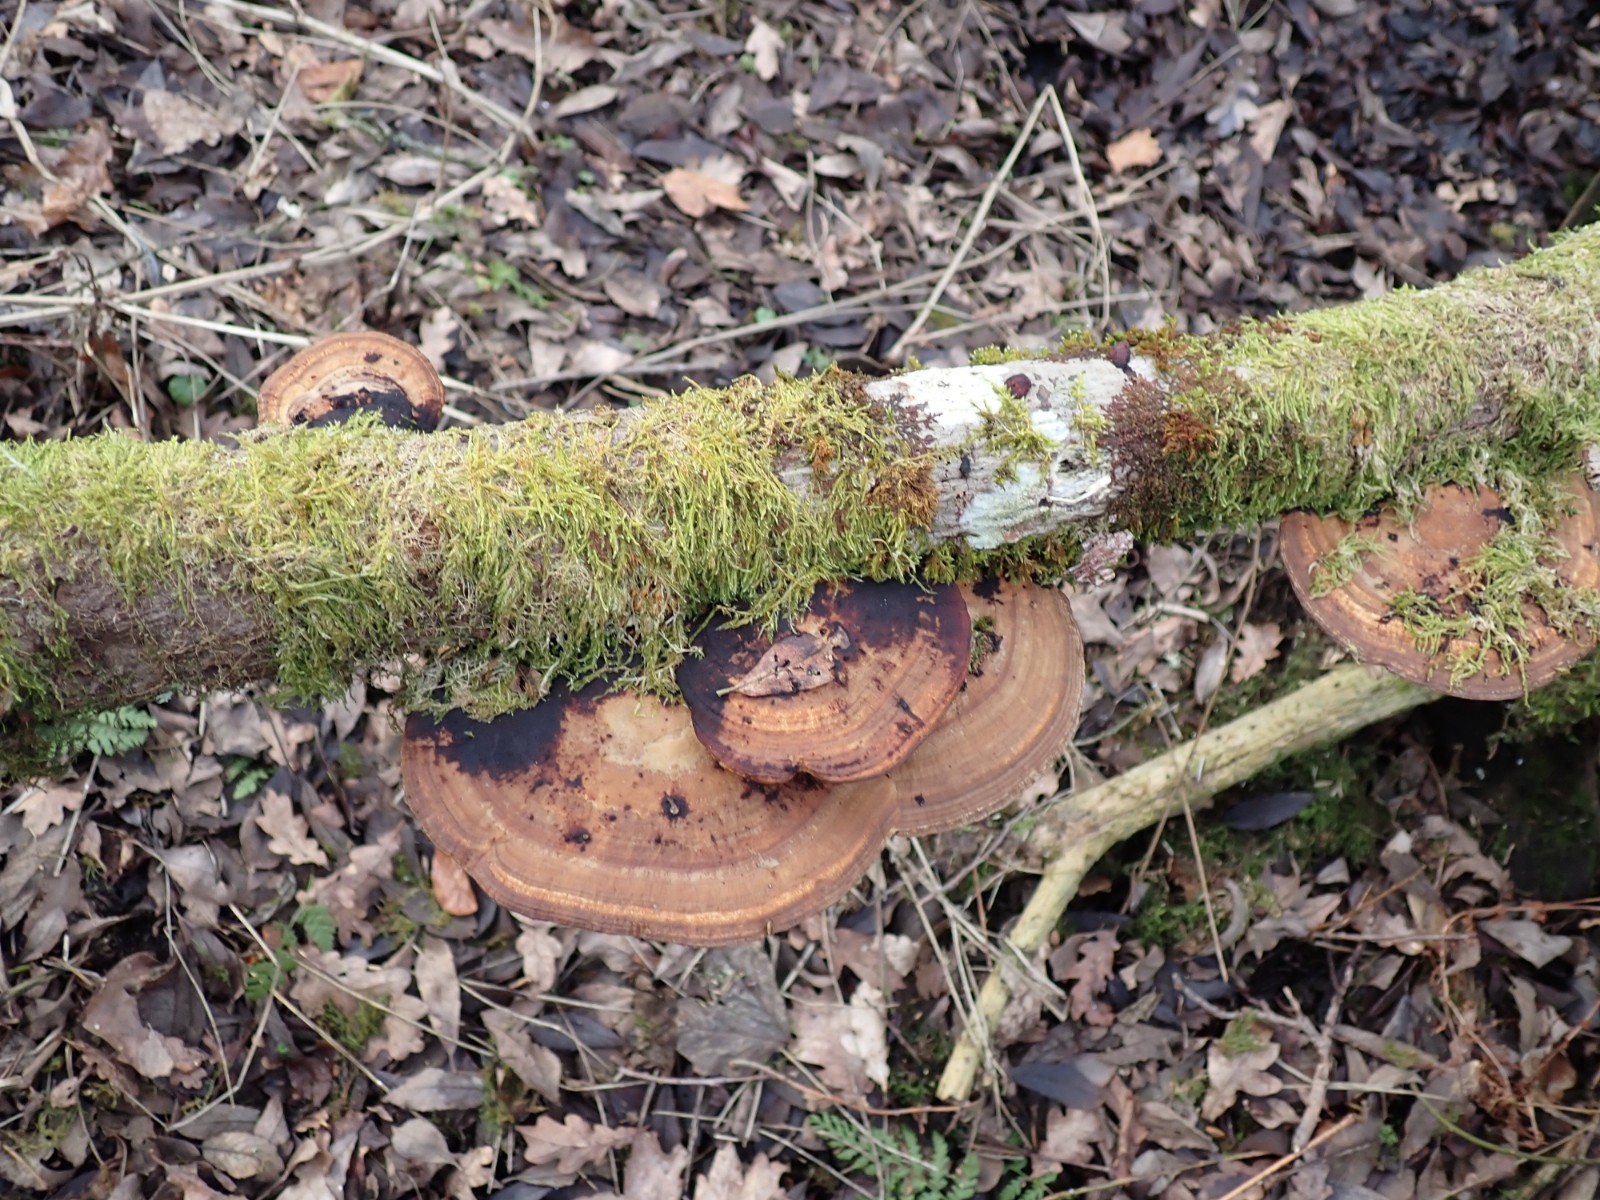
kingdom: Fungi
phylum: Basidiomycota
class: Agaricomycetes
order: Polyporales
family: Polyporaceae
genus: Daedaleopsis
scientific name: Daedaleopsis confragosa
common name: rødmende læderporesvamp
